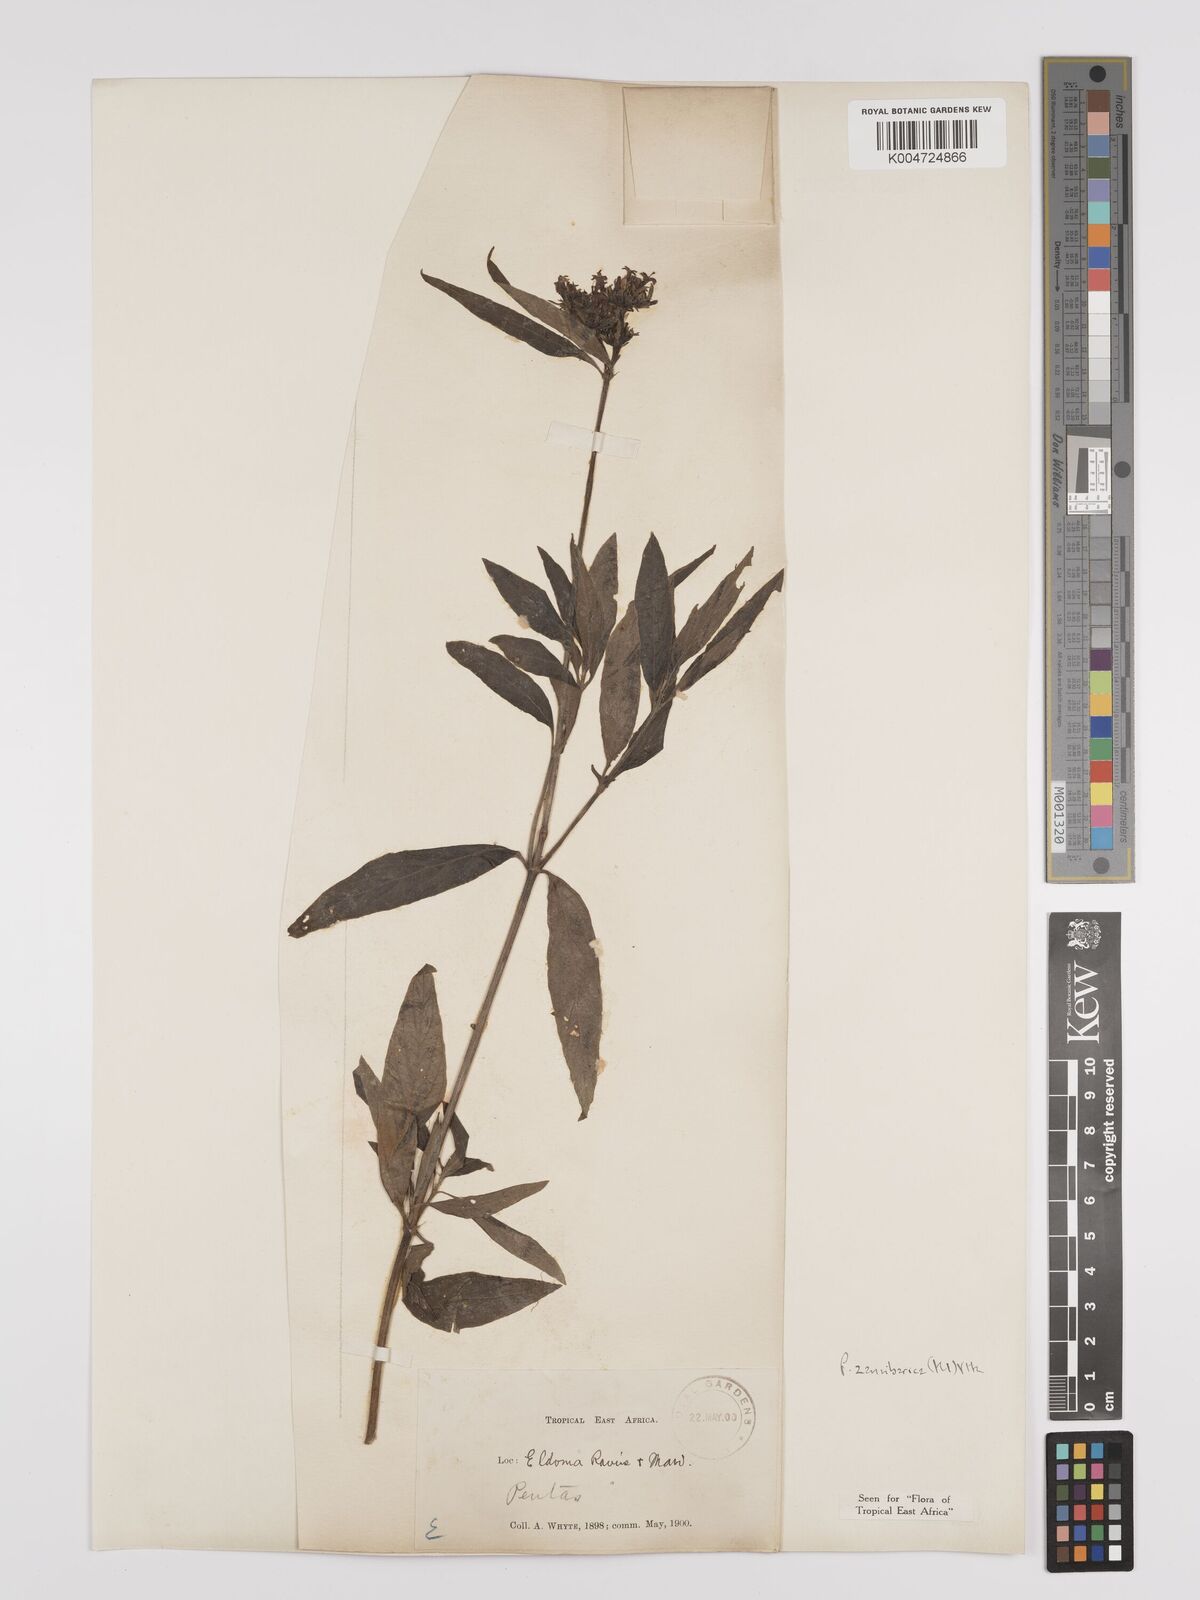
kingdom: Plantae
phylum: Tracheophyta
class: Magnoliopsida
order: Gentianales
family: Rubiaceae
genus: Pentas
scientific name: Pentas zanzibarica
